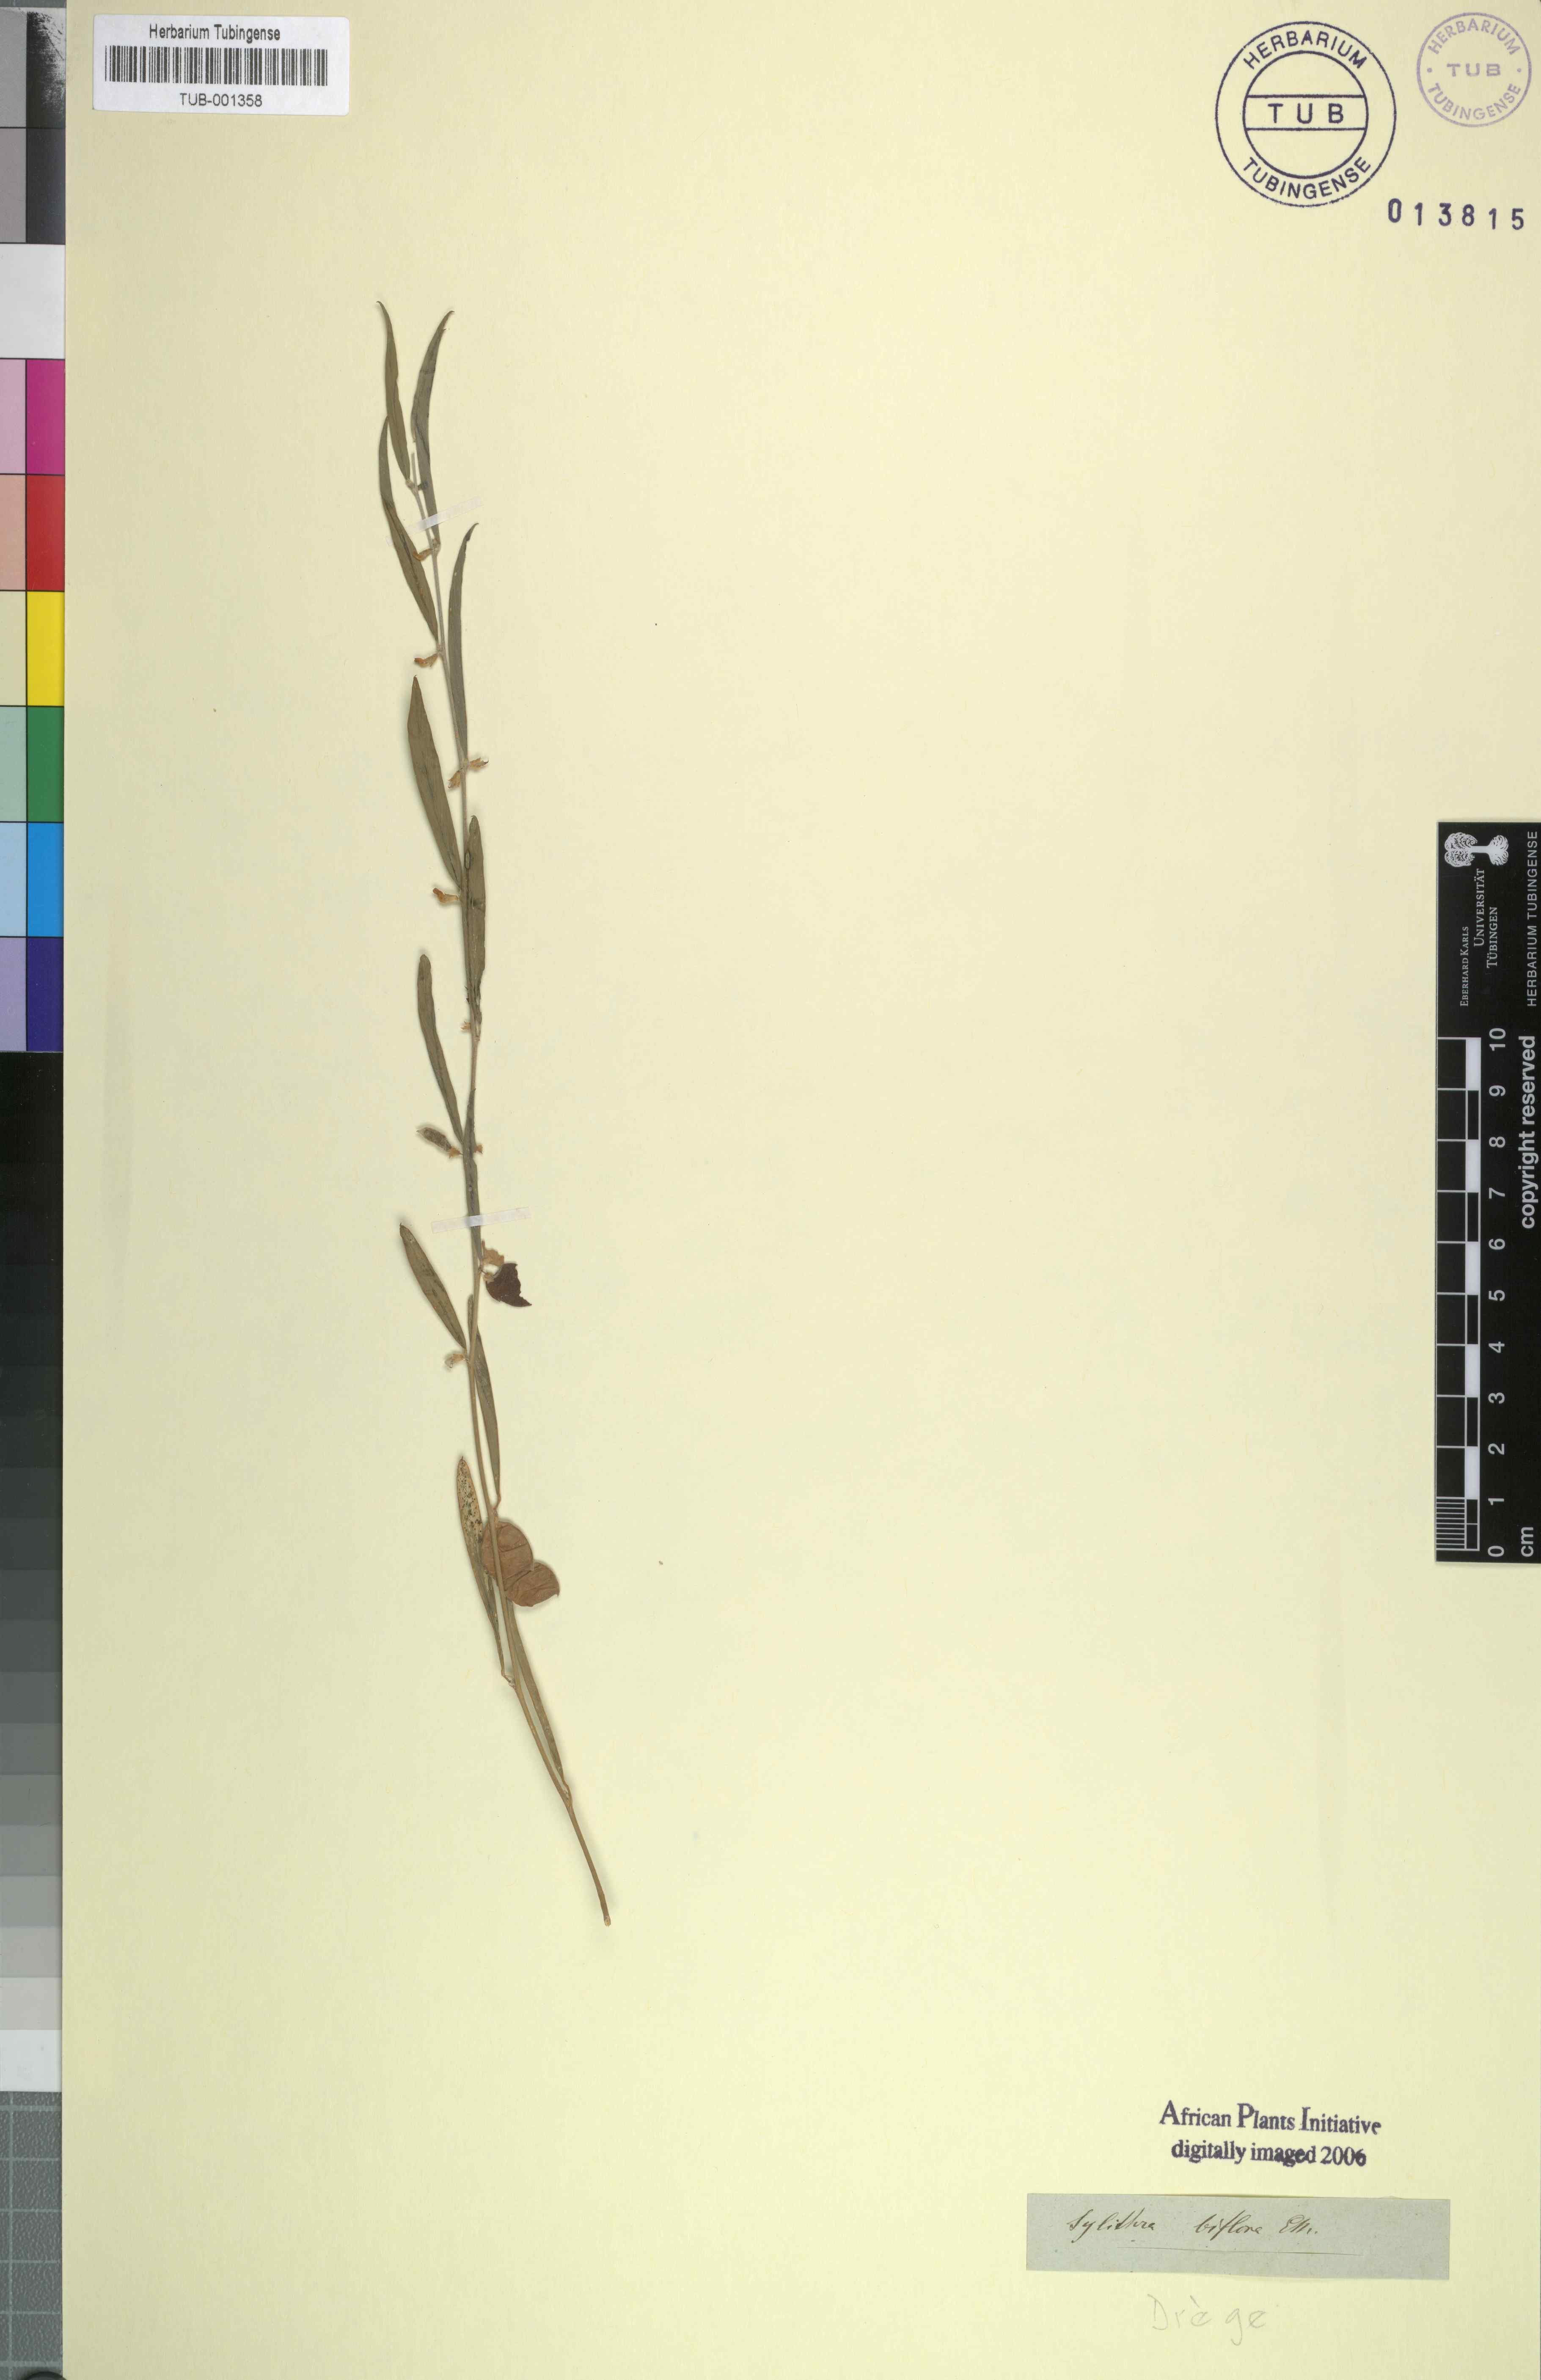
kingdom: Plantae
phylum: Tracheophyta
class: Magnoliopsida
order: Fabales
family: Fabaceae
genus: Ptycholobium
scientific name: Ptycholobium biflorum
